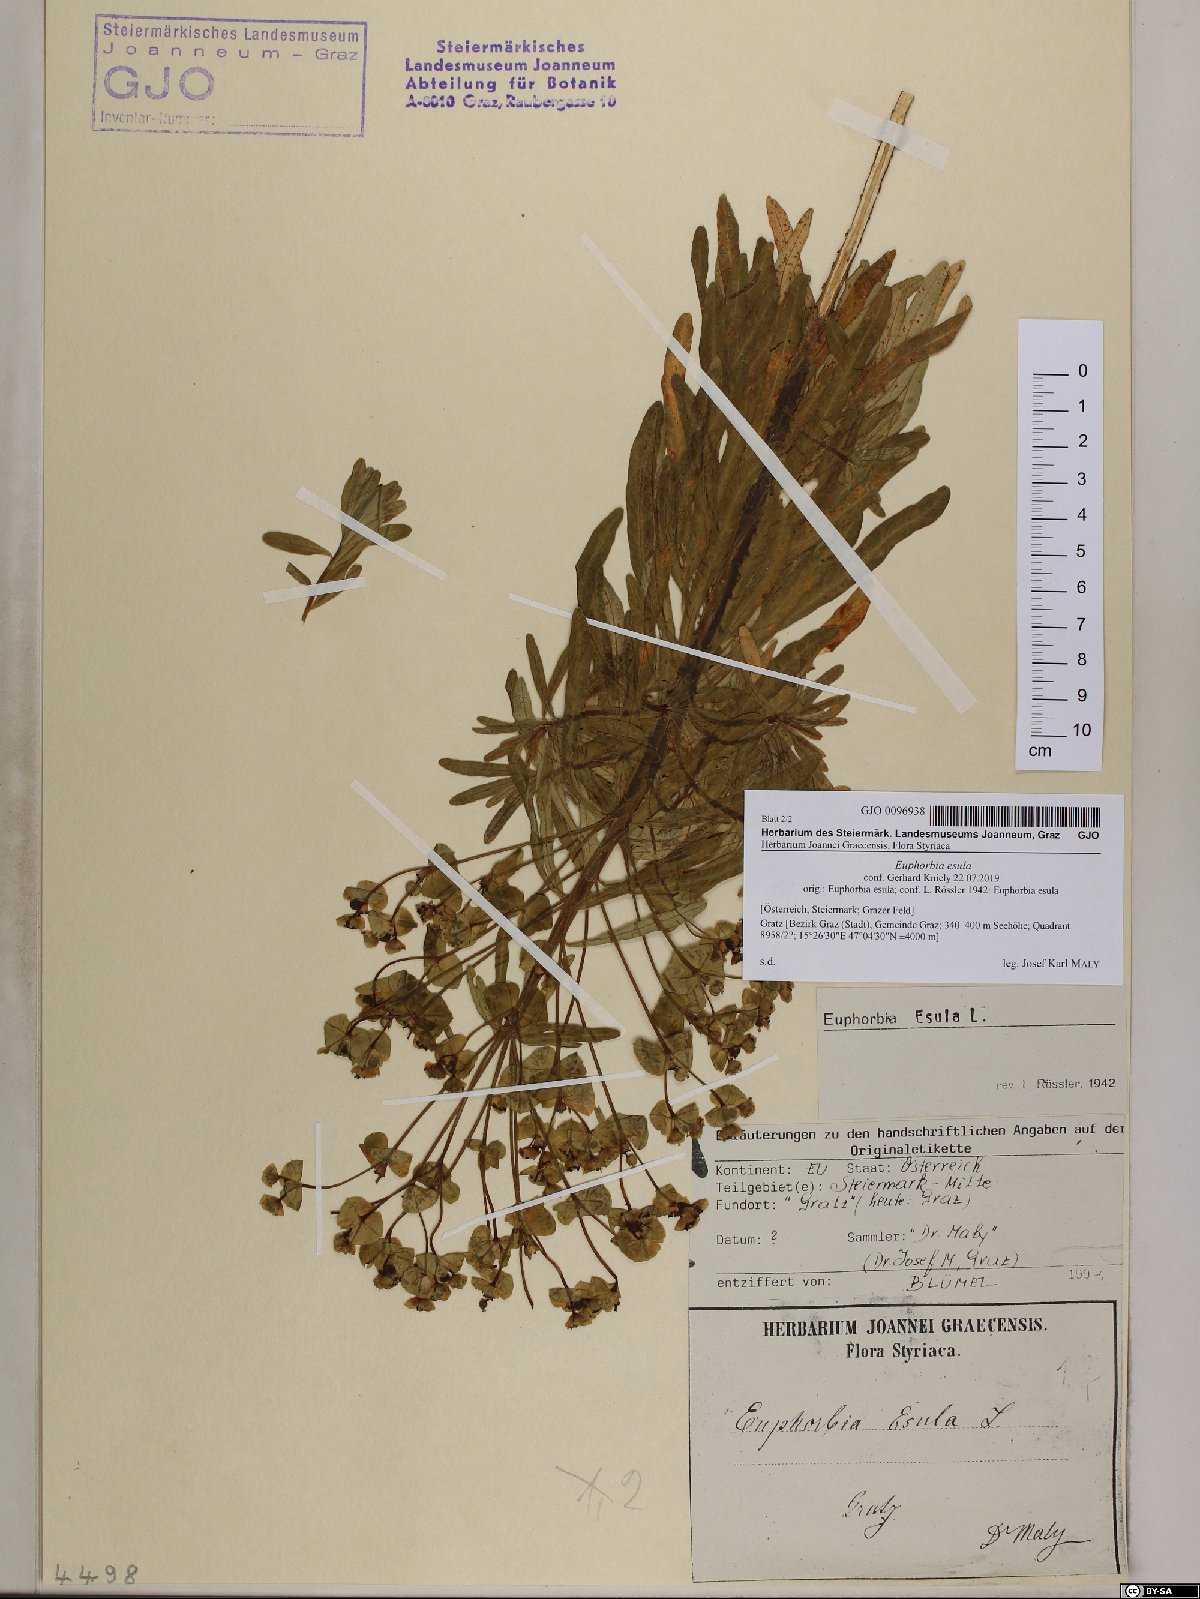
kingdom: Plantae
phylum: Tracheophyta
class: Magnoliopsida
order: Malpighiales
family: Euphorbiaceae
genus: Euphorbia
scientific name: Euphorbia esula
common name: Leafy spurge
